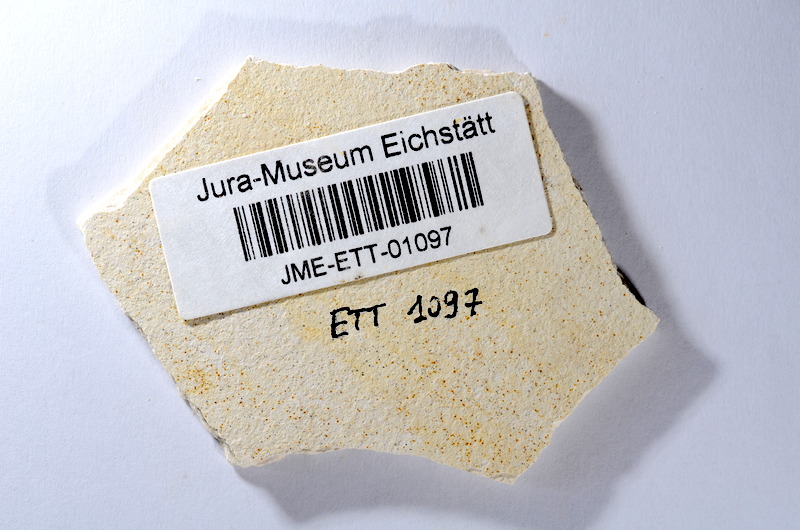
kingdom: Animalia
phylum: Chordata
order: Salmoniformes
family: Orthogonikleithridae
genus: Orthogonikleithrus
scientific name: Orthogonikleithrus hoelli
